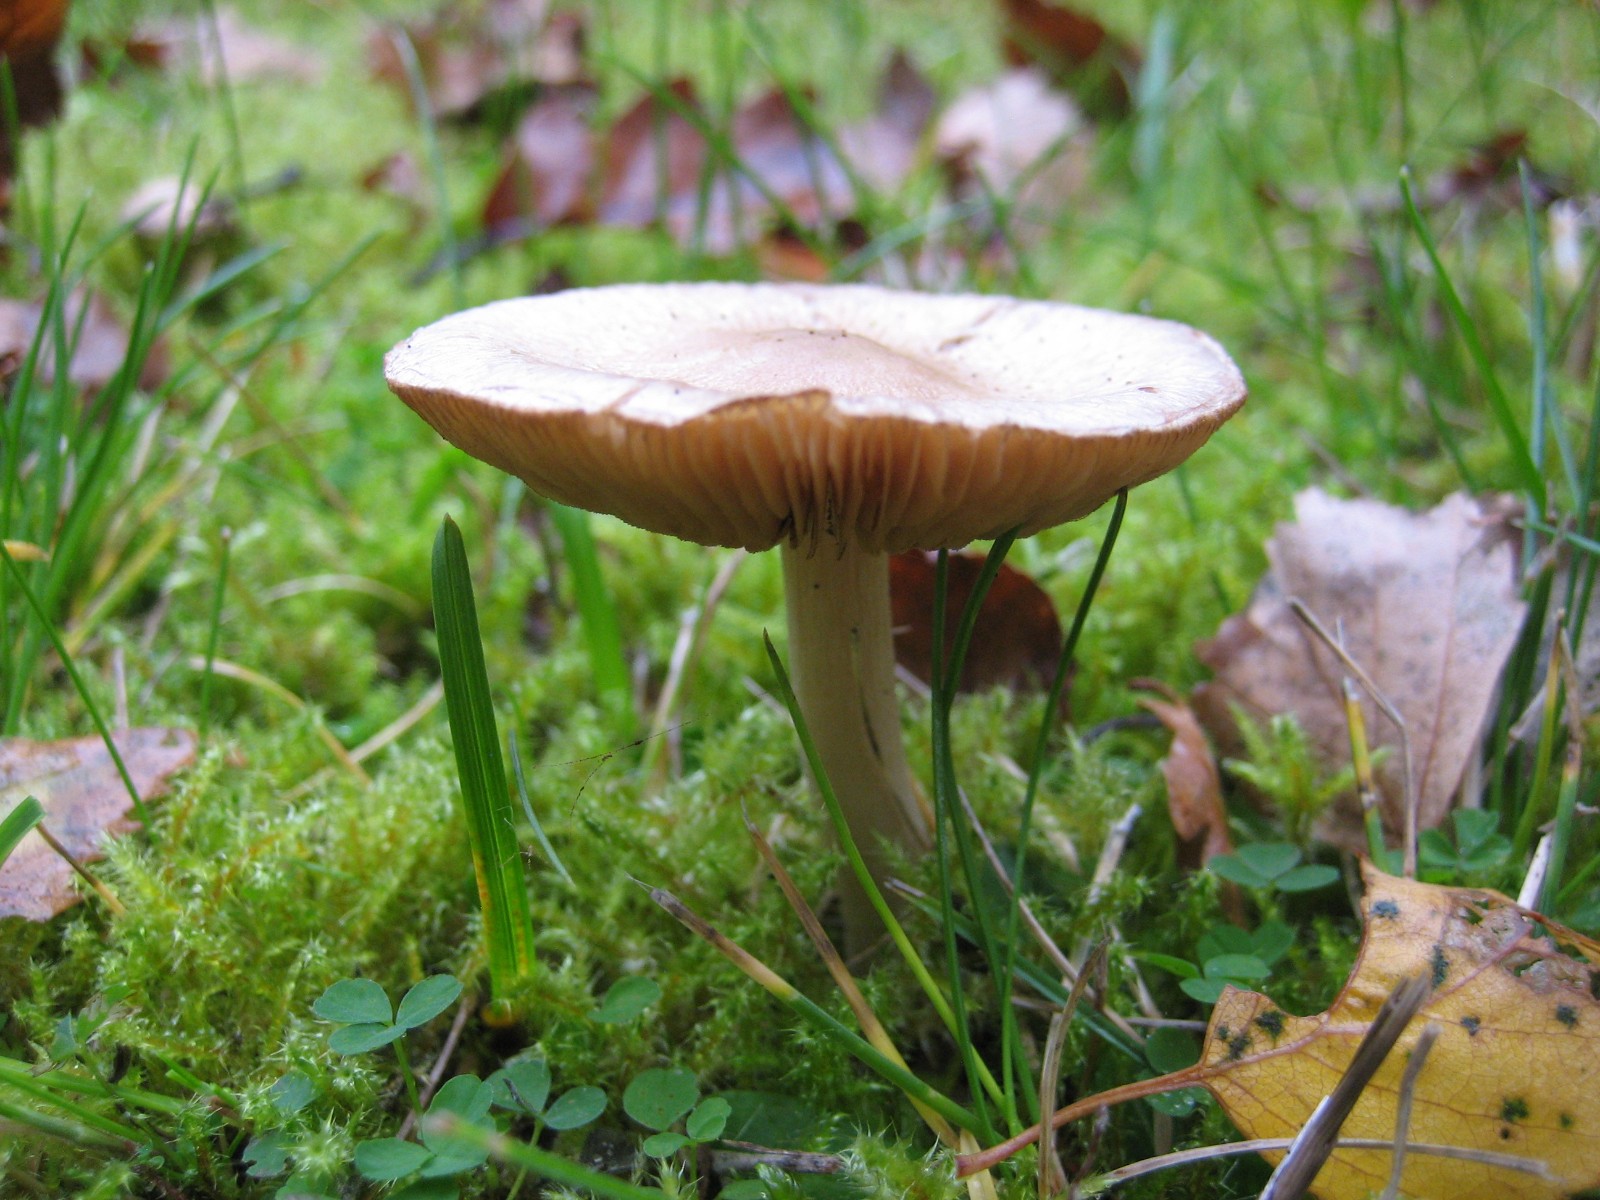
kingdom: Fungi
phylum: Basidiomycota
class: Agaricomycetes
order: Agaricales
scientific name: Agaricales
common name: champignonordenen
